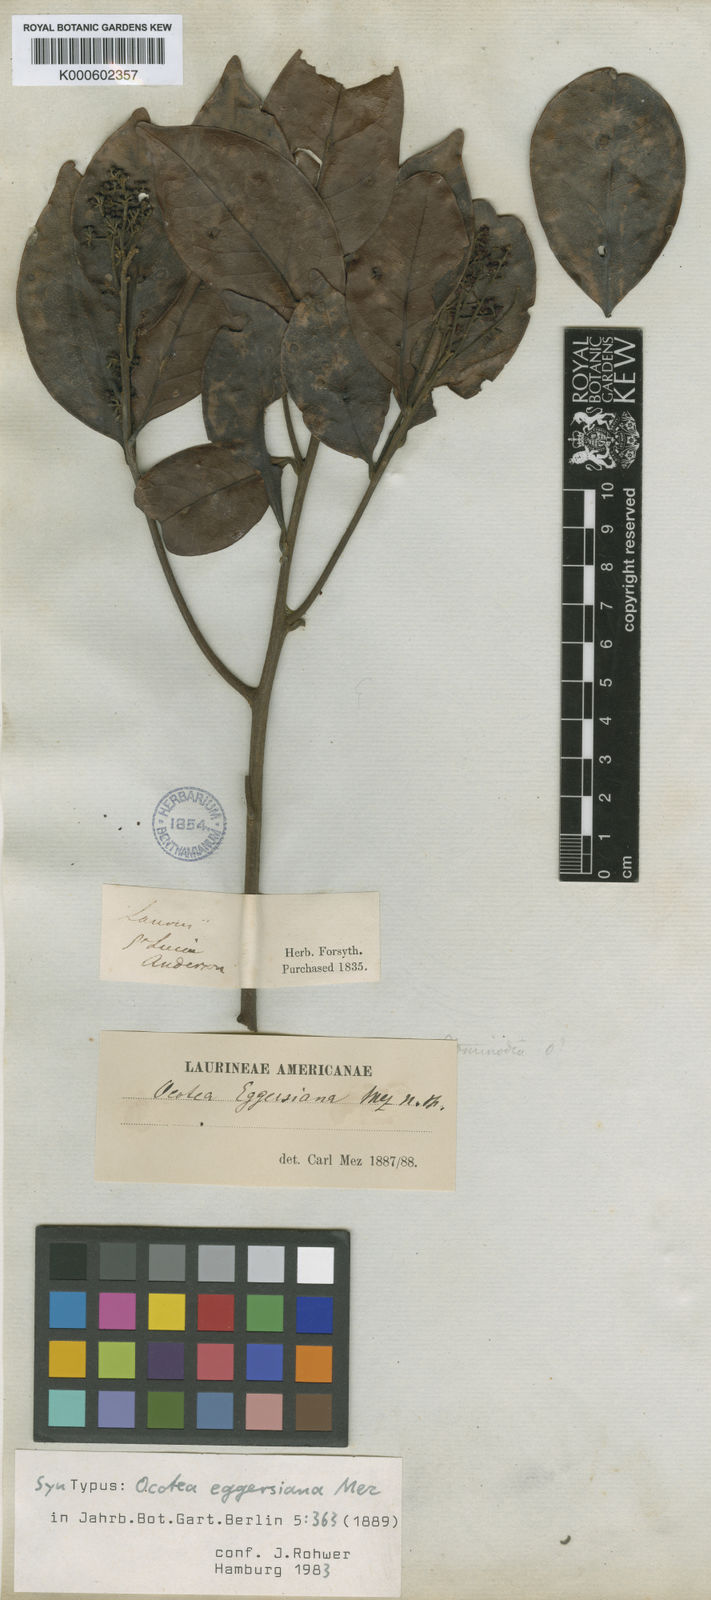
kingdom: Plantae
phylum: Tracheophyta
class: Magnoliopsida
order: Laurales
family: Lauraceae
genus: Ocotea
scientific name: Ocotea eggersiana
